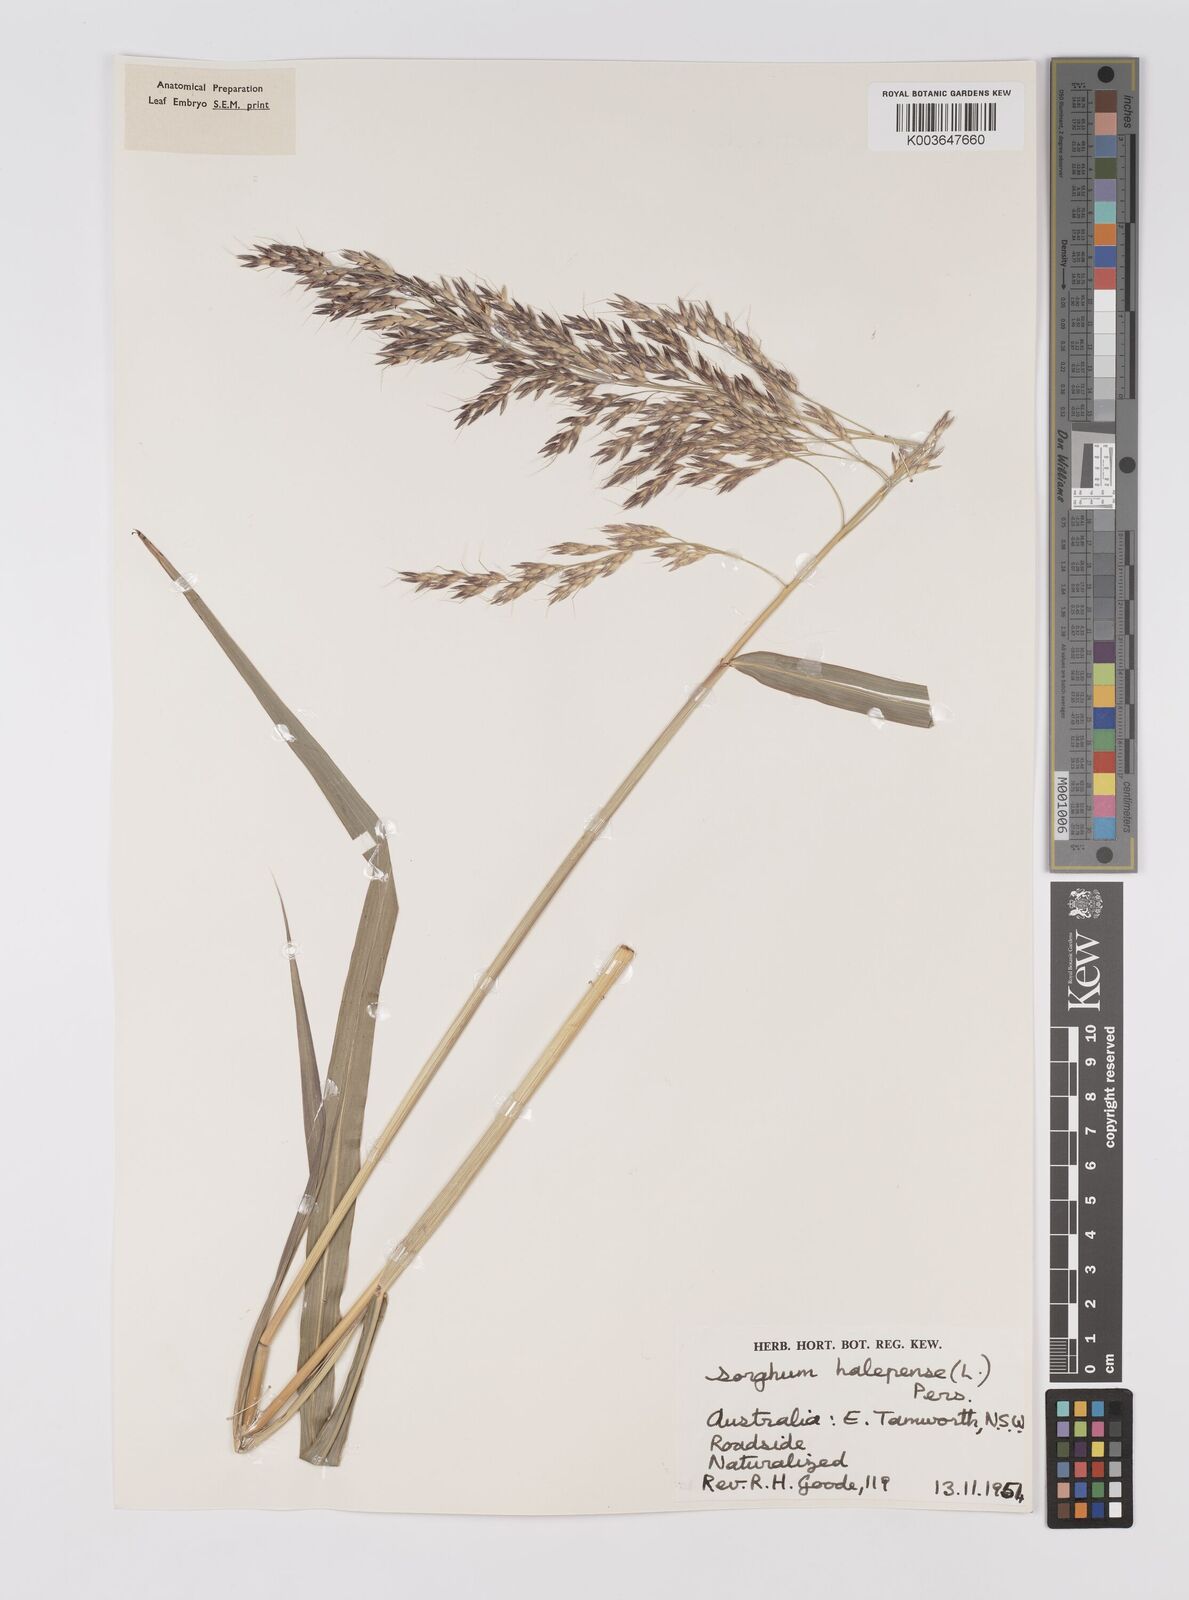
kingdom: Plantae
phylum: Tracheophyta
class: Liliopsida
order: Poales
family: Poaceae
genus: Sorghum
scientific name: Sorghum halepense
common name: Johnson-grass
